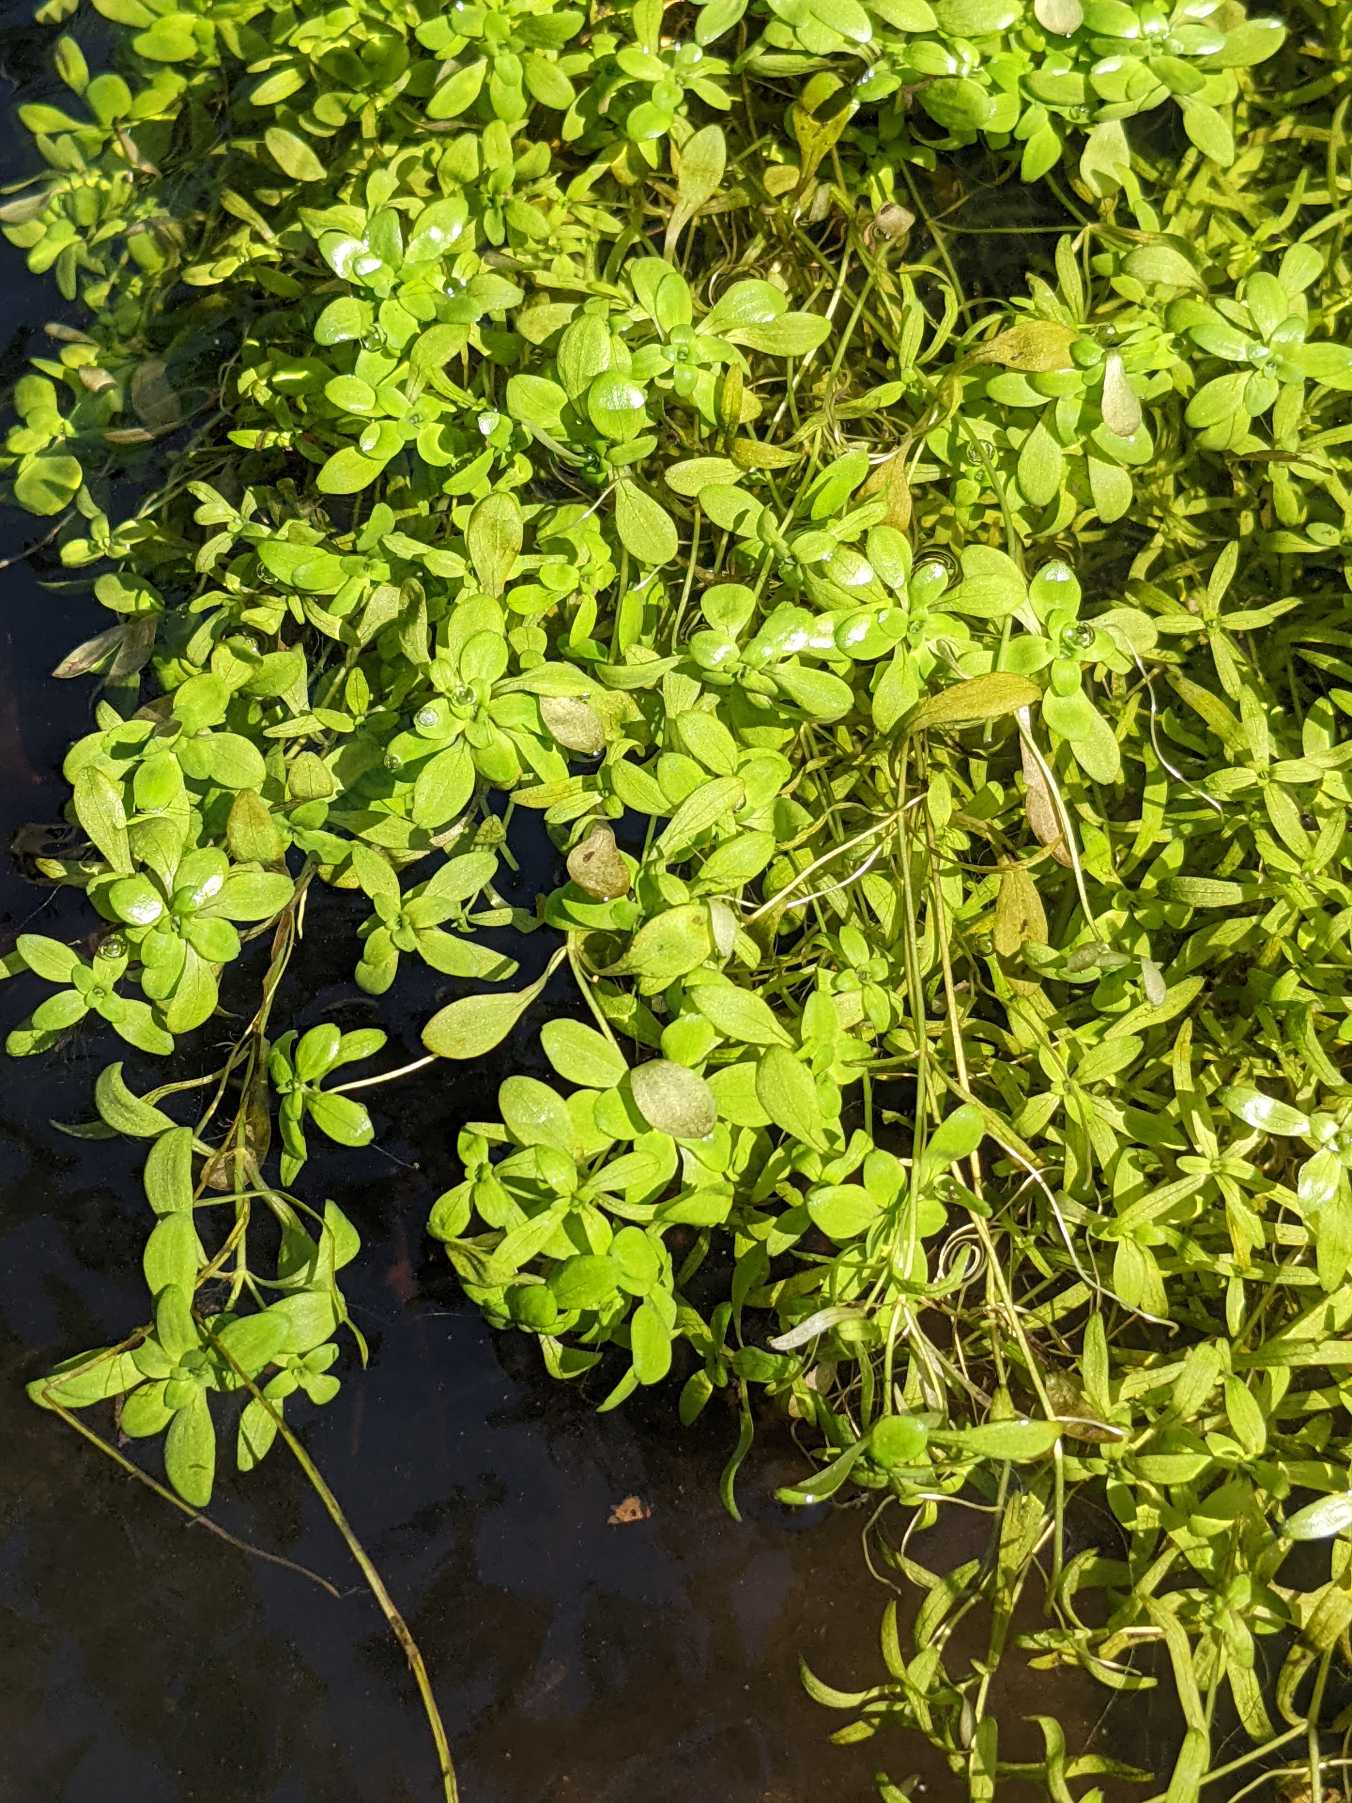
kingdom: Plantae
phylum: Tracheophyta
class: Magnoliopsida
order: Lamiales
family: Plantaginaceae
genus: Callitriche
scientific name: Callitriche
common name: Vandstjerneslægten
